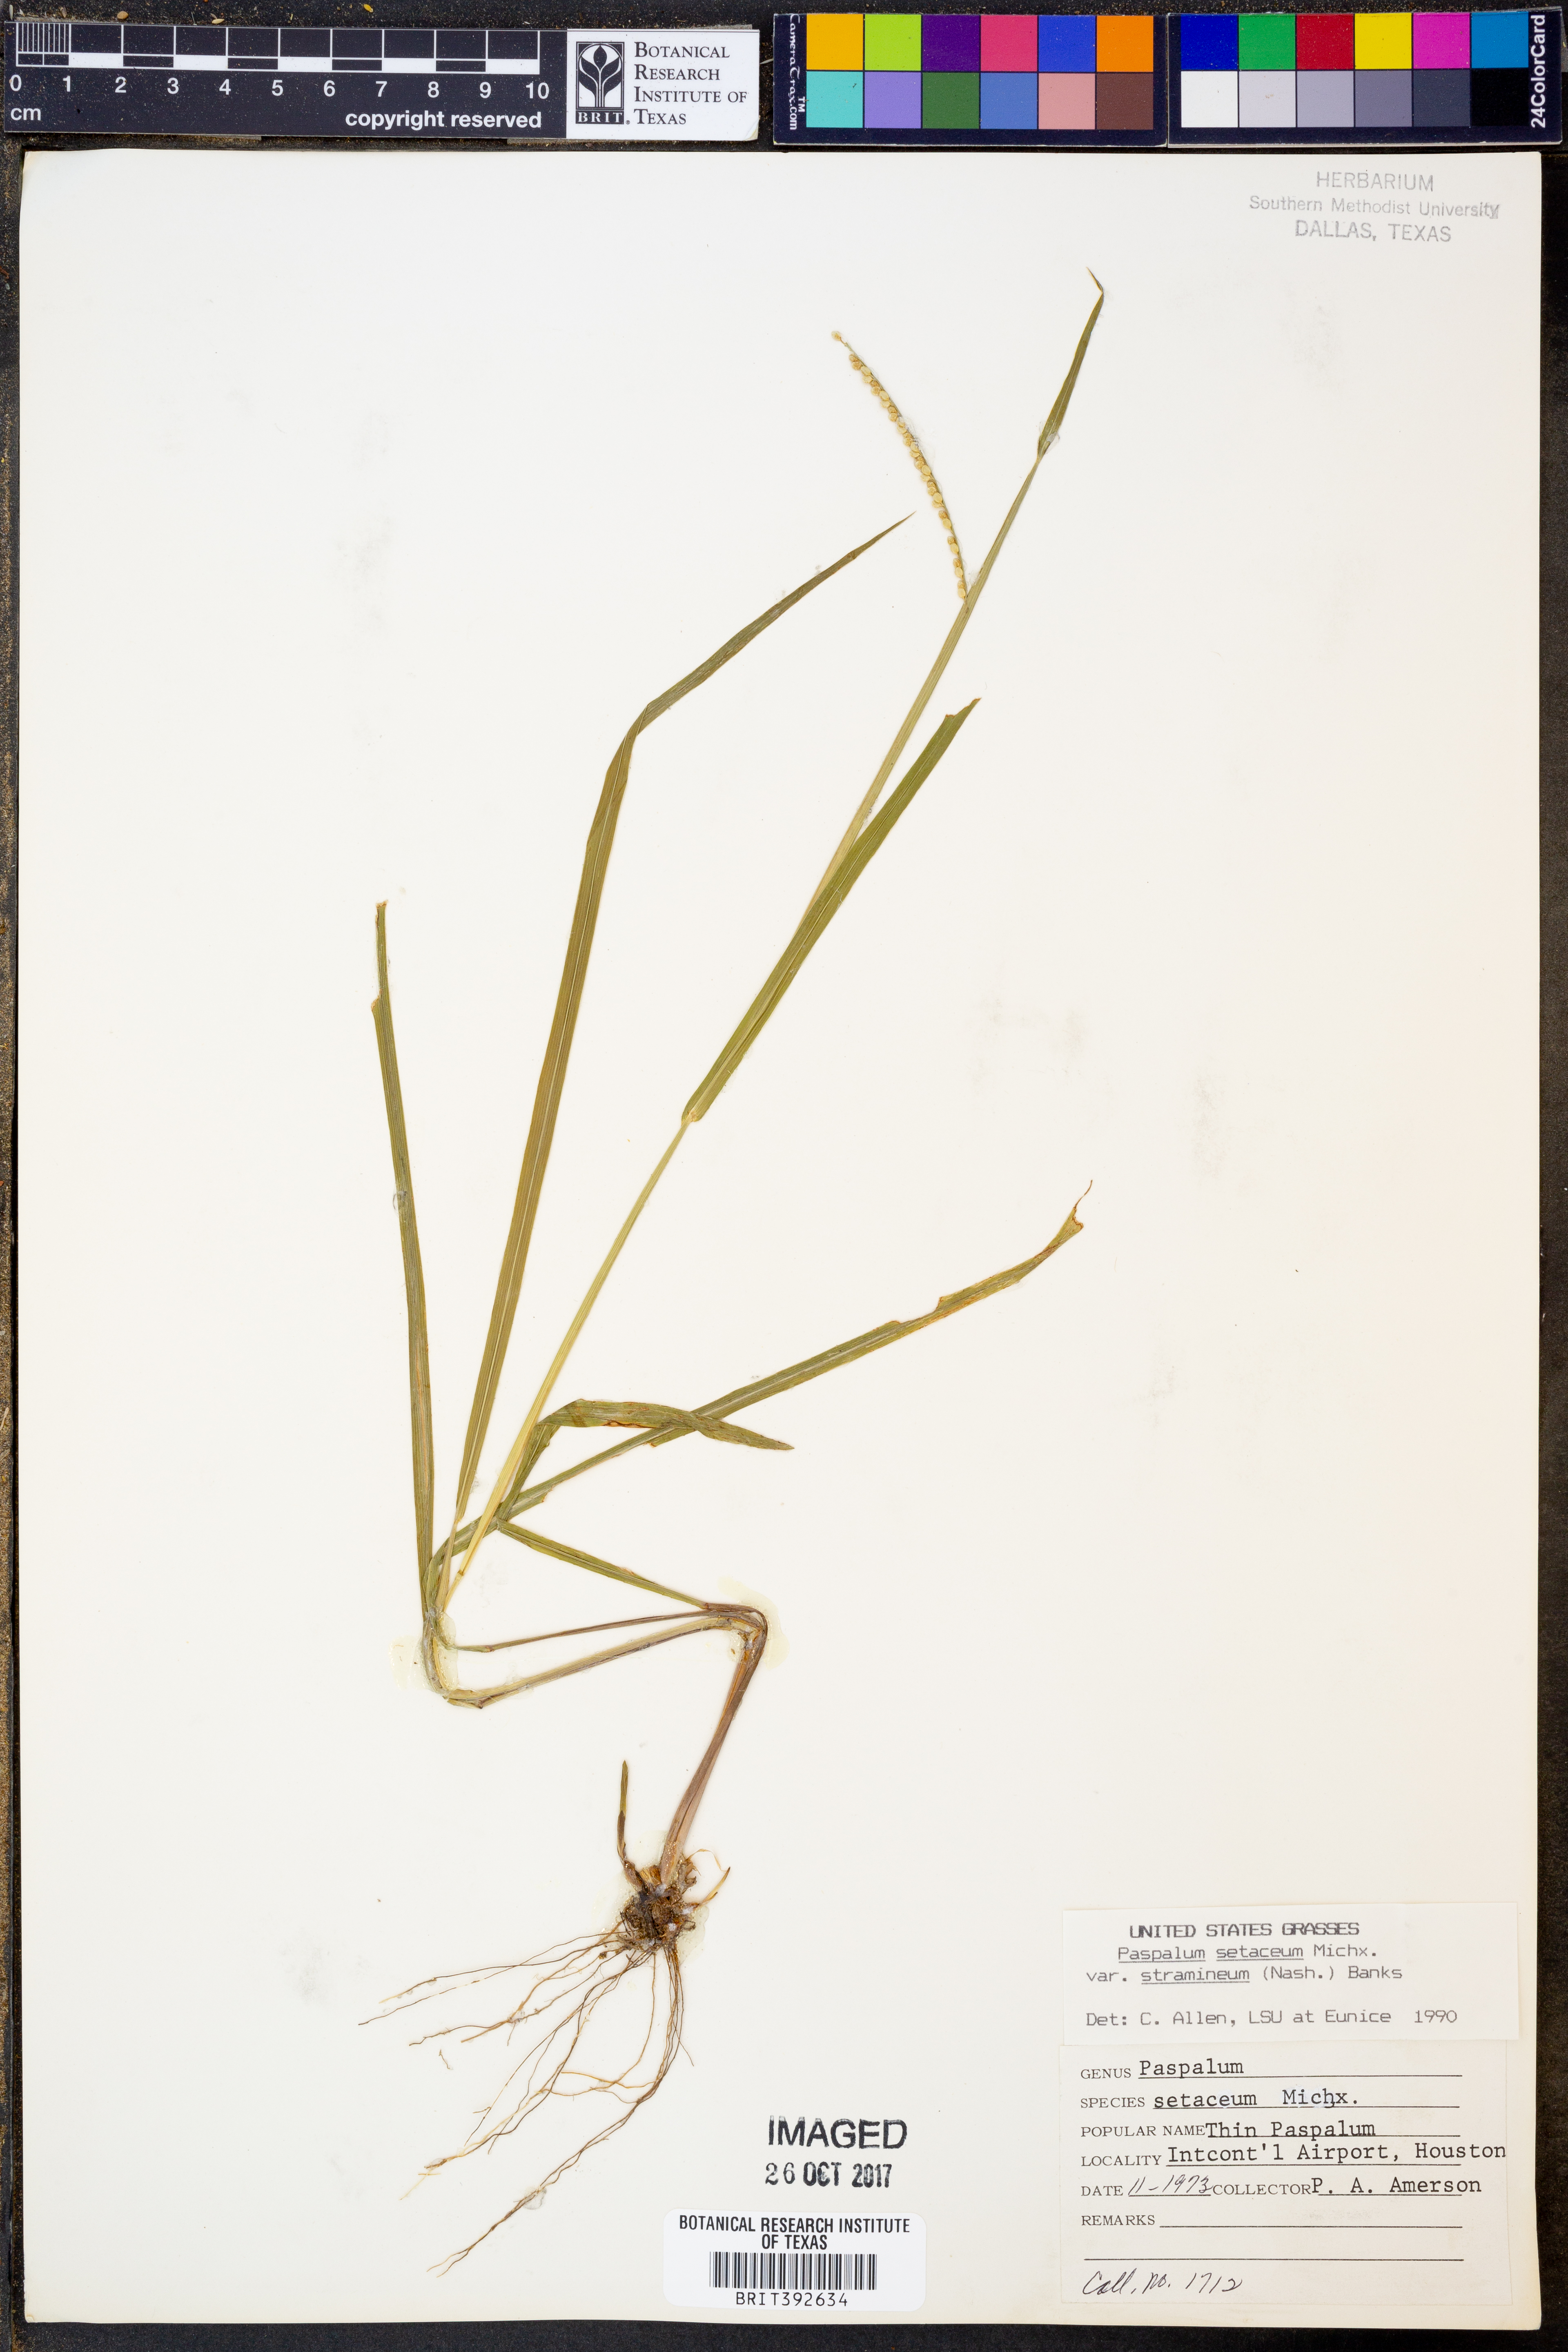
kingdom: Plantae
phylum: Tracheophyta
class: Liliopsida
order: Poales
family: Poaceae
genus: Paspalum
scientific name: Paspalum setaceum
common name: Slender paspalum
